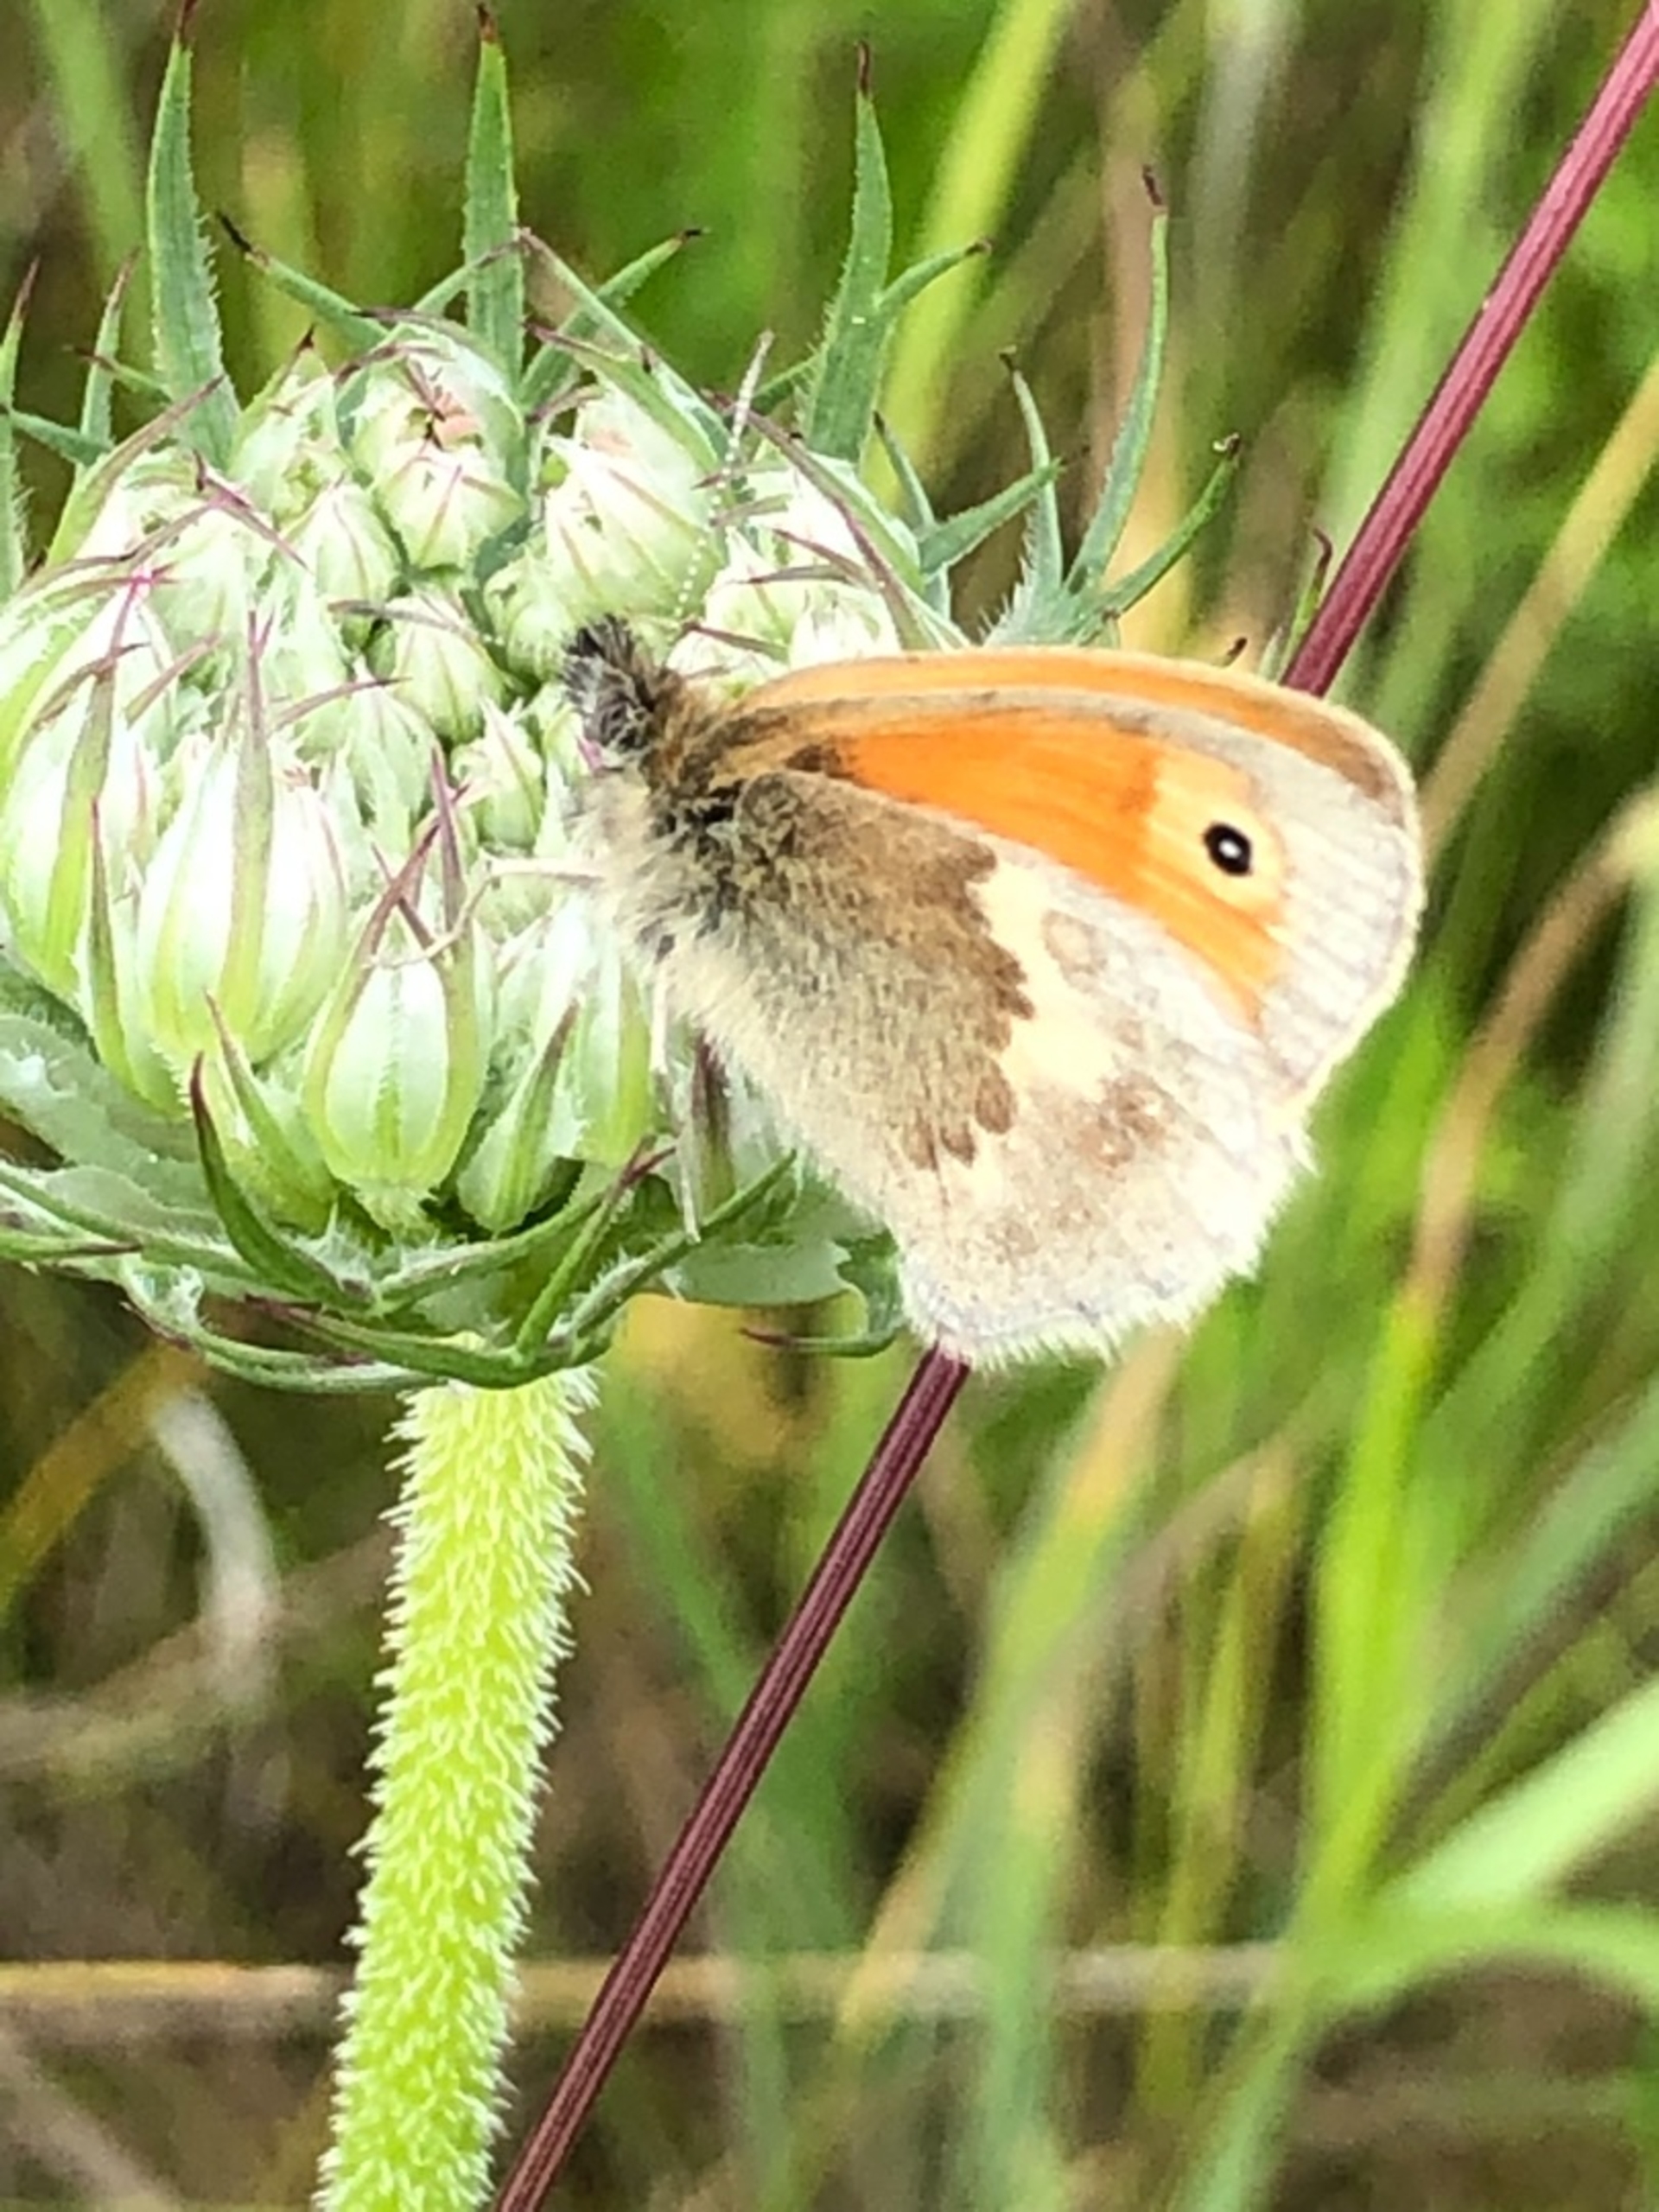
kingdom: Animalia
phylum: Arthropoda
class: Insecta
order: Lepidoptera
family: Nymphalidae
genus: Coenonympha
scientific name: Coenonympha pamphilus
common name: Okkergul randøje
